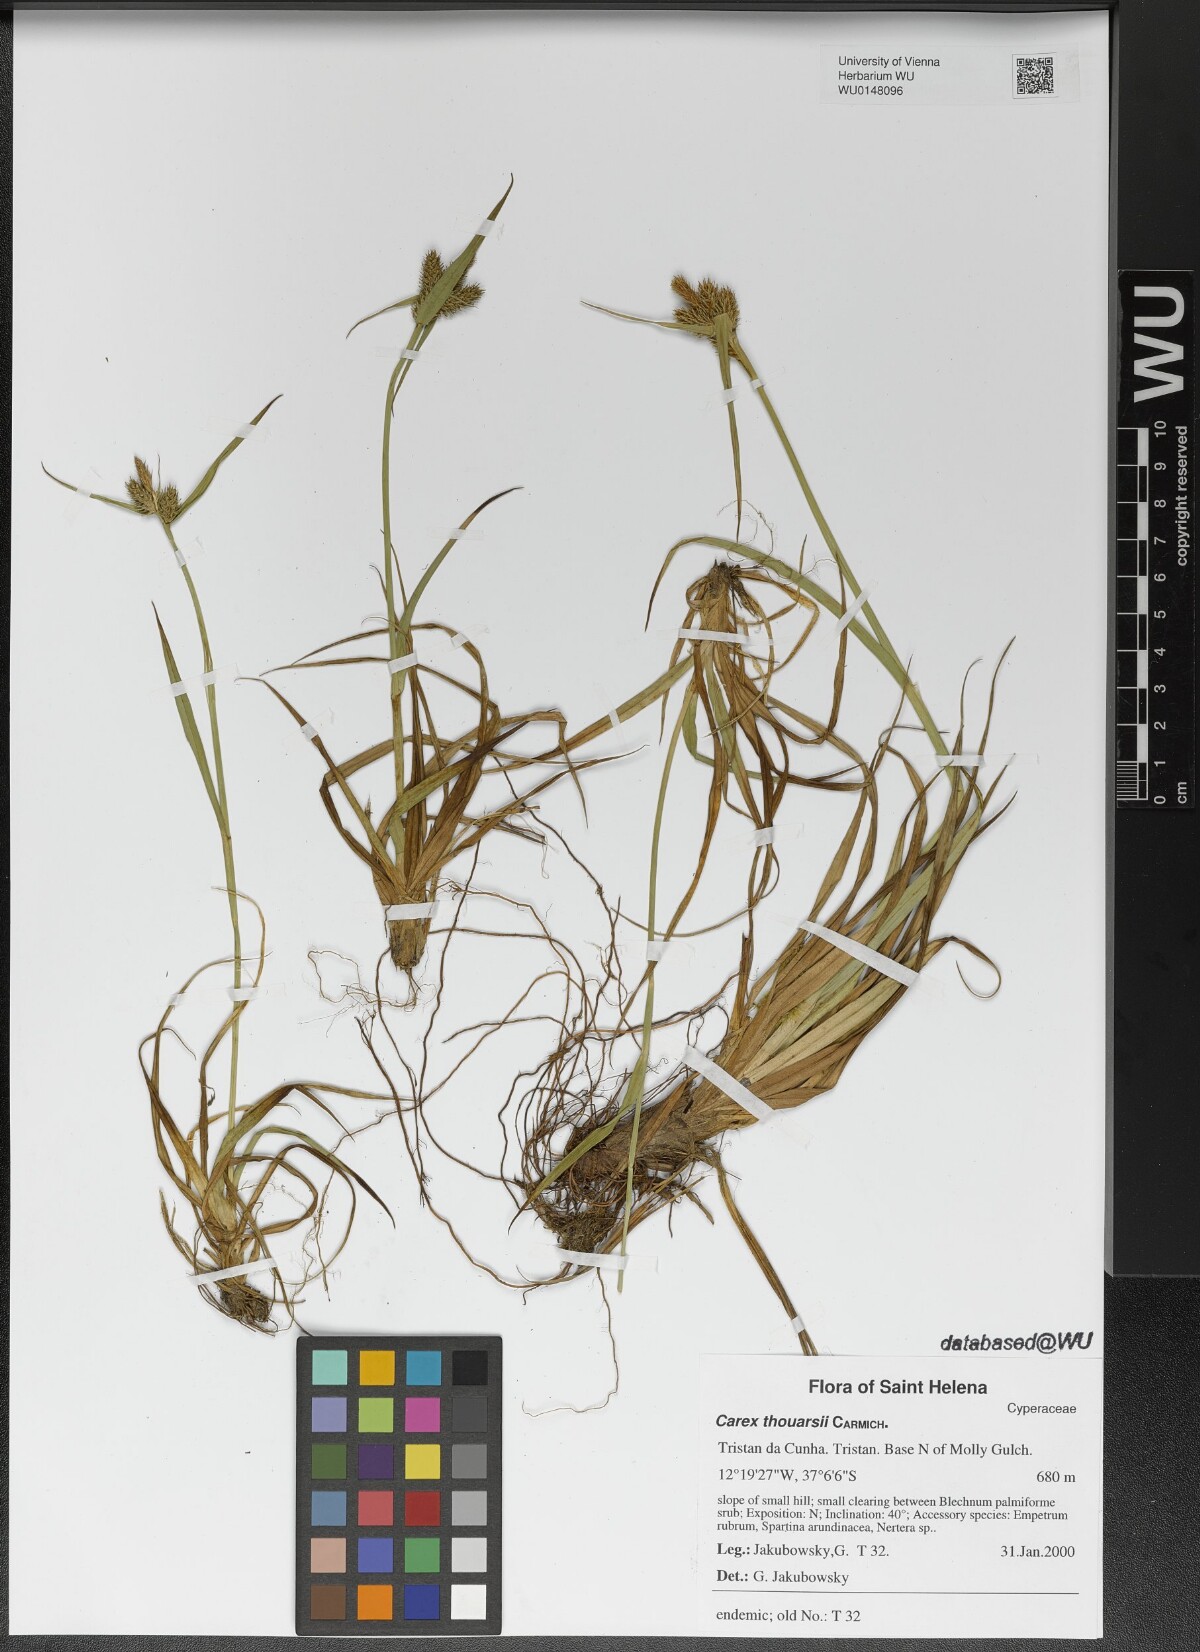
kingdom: Plantae
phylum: Tracheophyta
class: Liliopsida
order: Poales
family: Cyperaceae
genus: Carex
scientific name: Carex thouarsii
